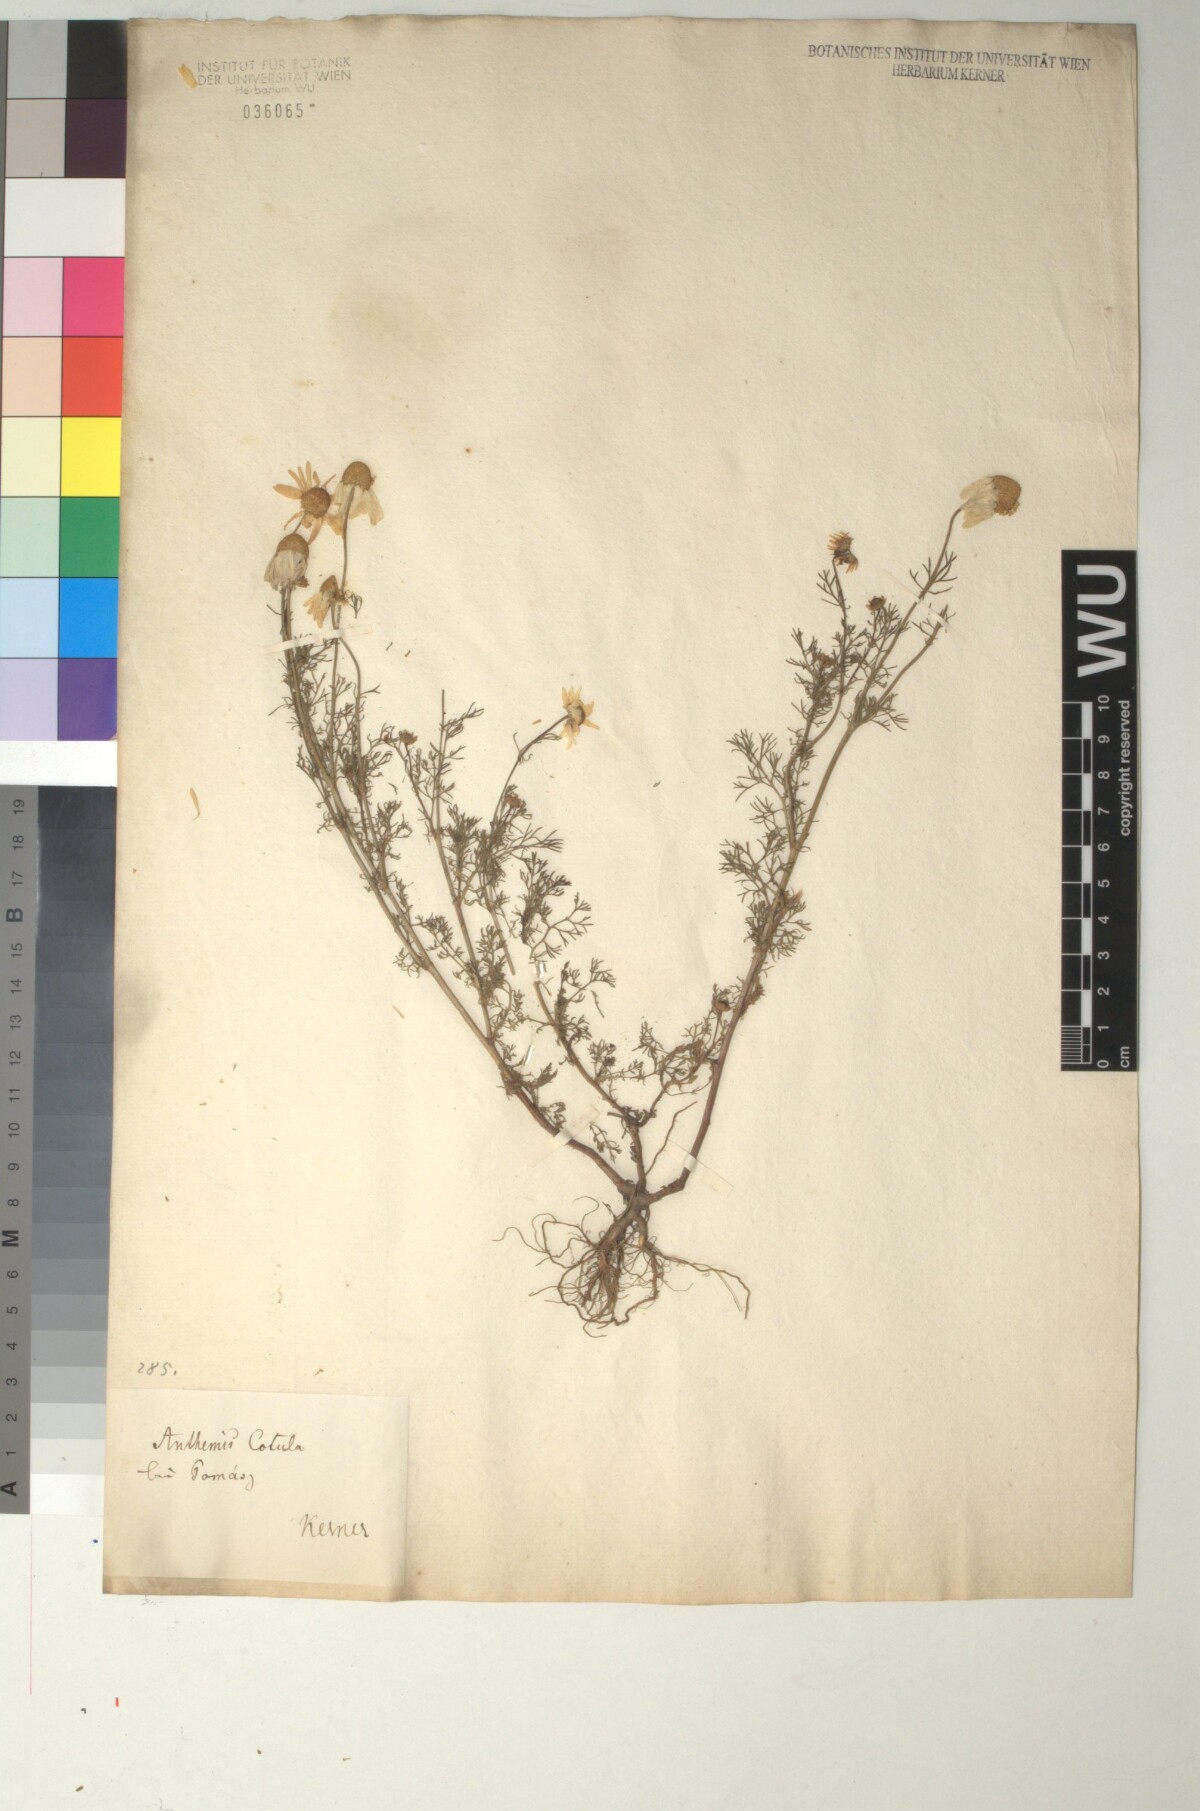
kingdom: Plantae
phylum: Tracheophyta
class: Magnoliopsida
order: Asterales
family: Asteraceae
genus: Anthemis
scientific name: Anthemis cotula
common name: Stinking chamomile
